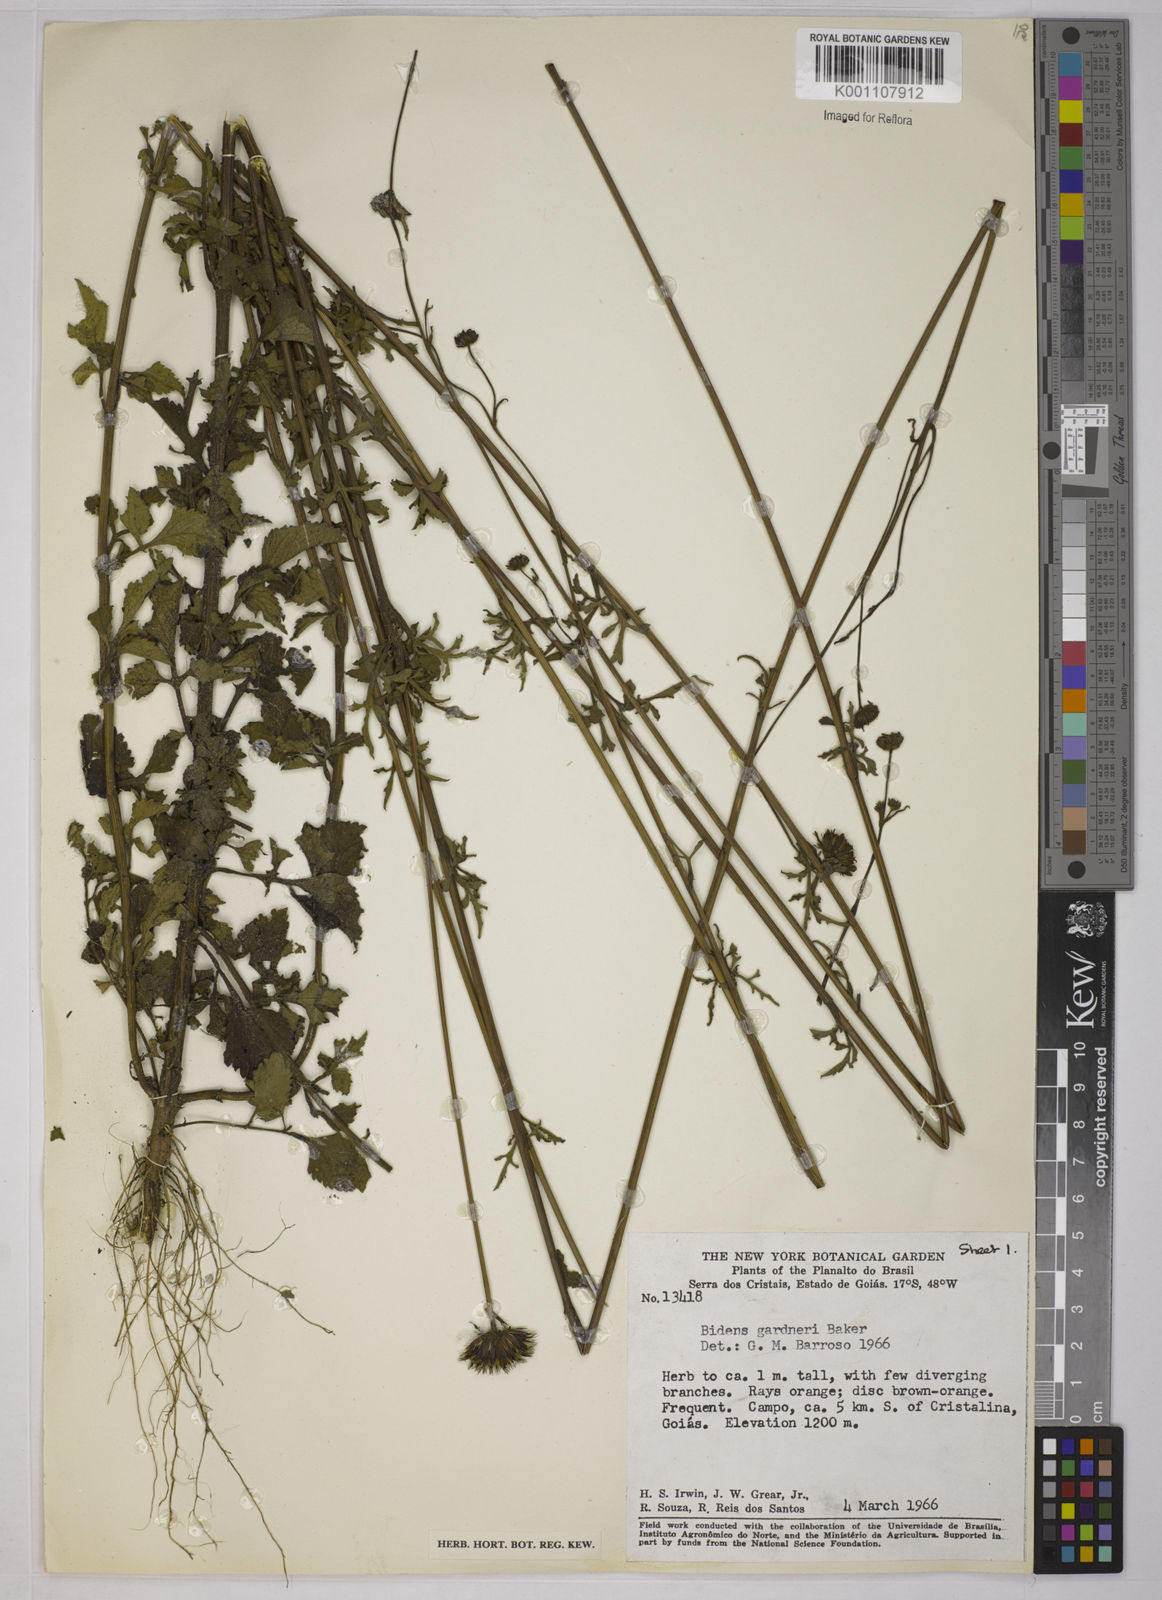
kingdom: Plantae
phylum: Tracheophyta
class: Magnoliopsida
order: Asterales
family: Asteraceae
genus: Bidens
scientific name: Bidens gardneri
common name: Ridge beggartick
